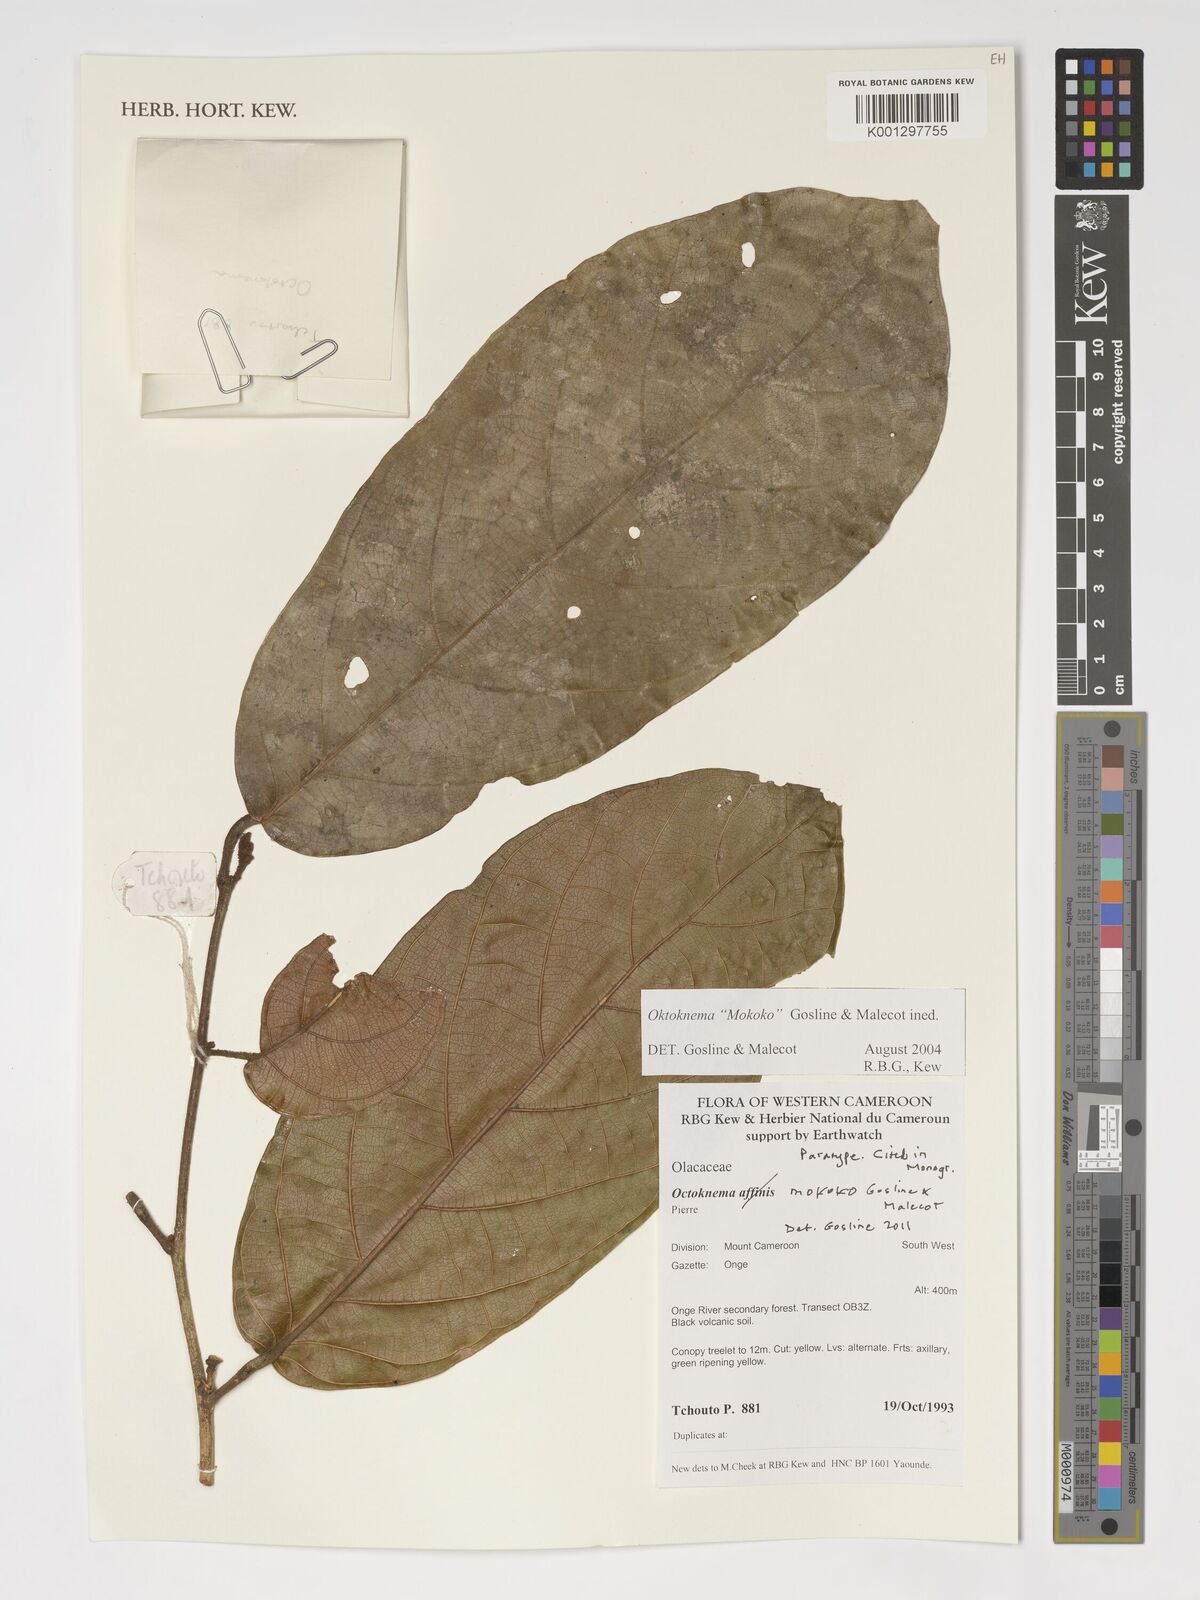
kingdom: Plantae
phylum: Tracheophyta
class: Magnoliopsida
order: Santalales
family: Octoknemaceae
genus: Octoknema
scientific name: Octoknema mokoko
